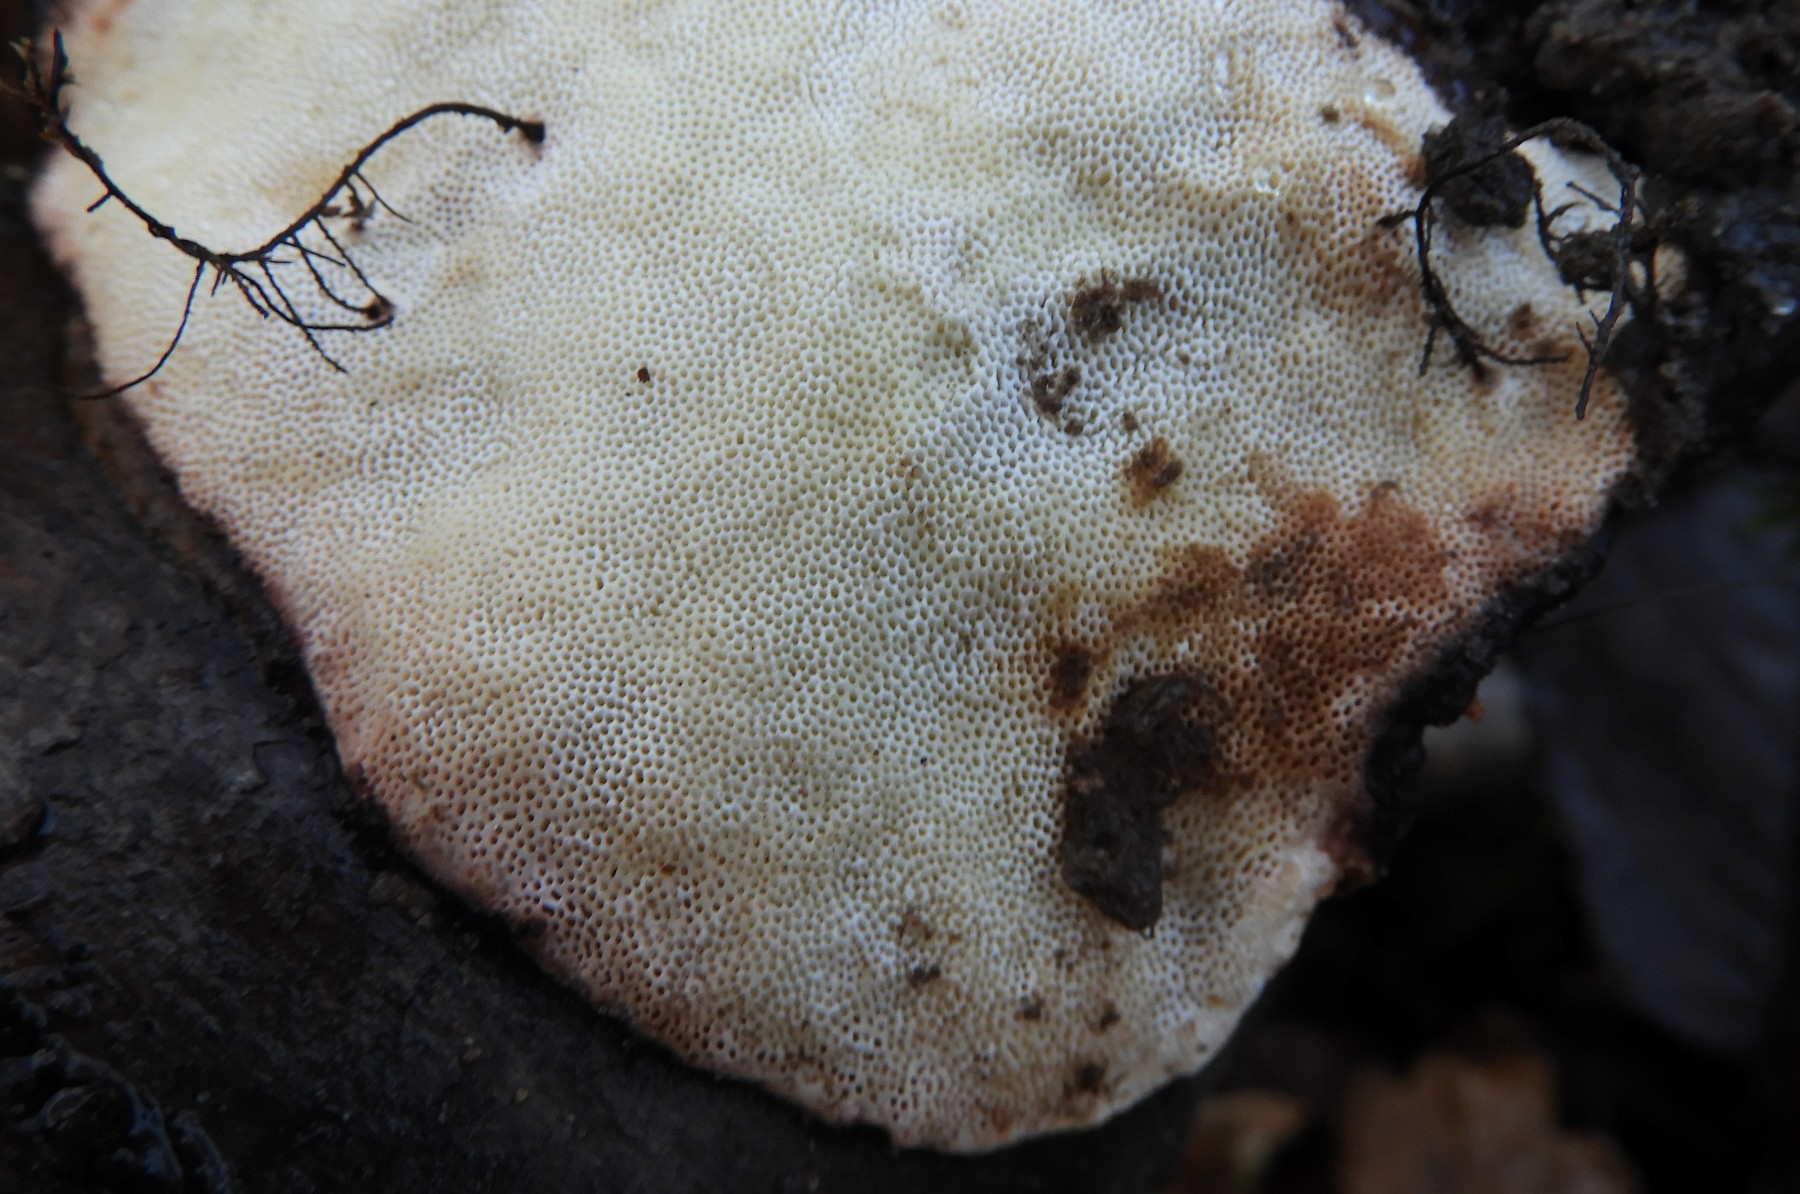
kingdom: Fungi
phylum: Basidiomycota
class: Agaricomycetes
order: Polyporales
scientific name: Polyporales
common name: poresvampordenen
